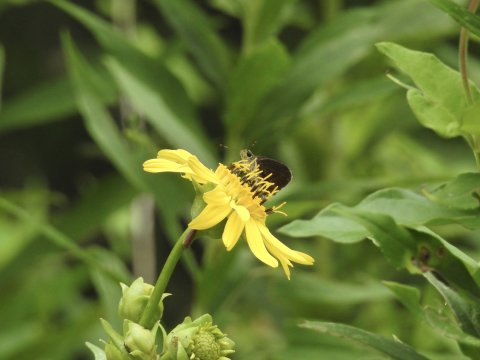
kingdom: Animalia
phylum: Arthropoda
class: Insecta
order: Lepidoptera
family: Hesperiidae
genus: Euphyes
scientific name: Euphyes vestris
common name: Dun Skipper
